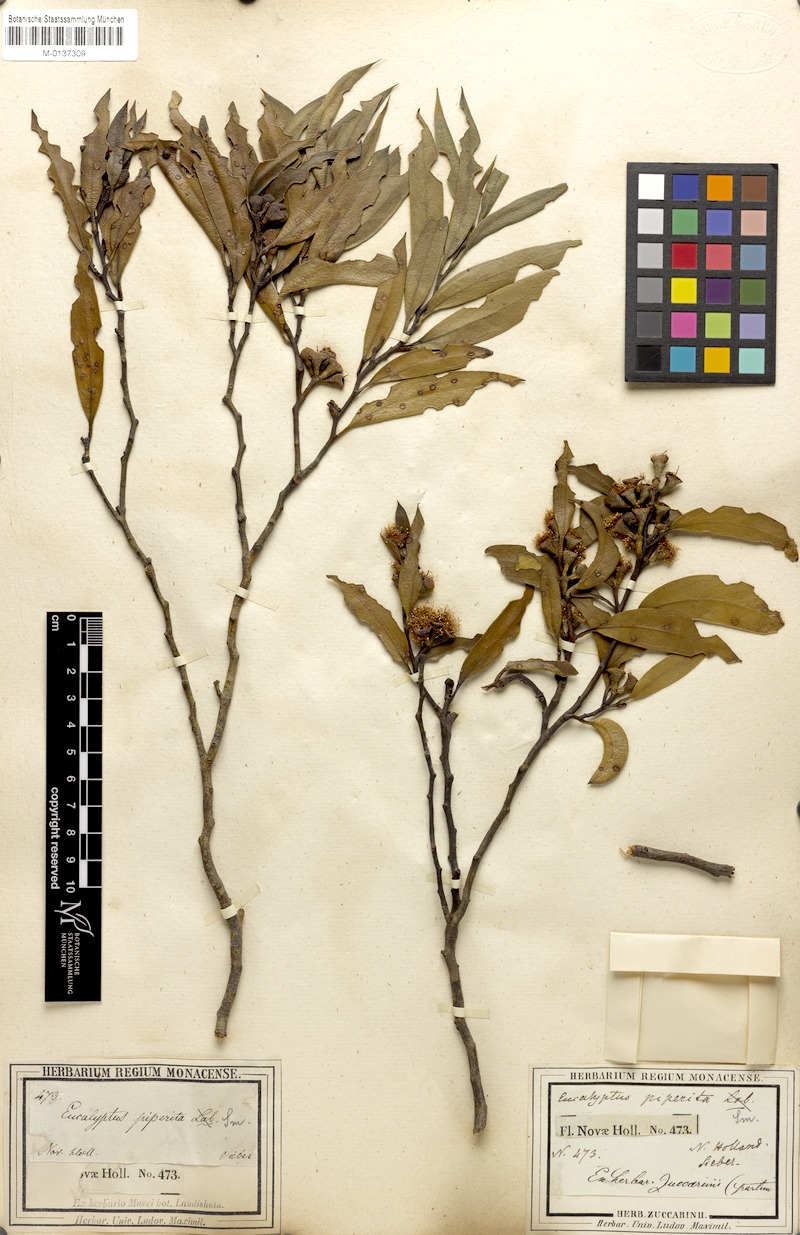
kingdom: Plantae
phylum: Tracheophyta
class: Magnoliopsida
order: Myrtales
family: Myrtaceae
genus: Eucalyptus
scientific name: Eucalyptus piperita
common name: Sydney peppermint
